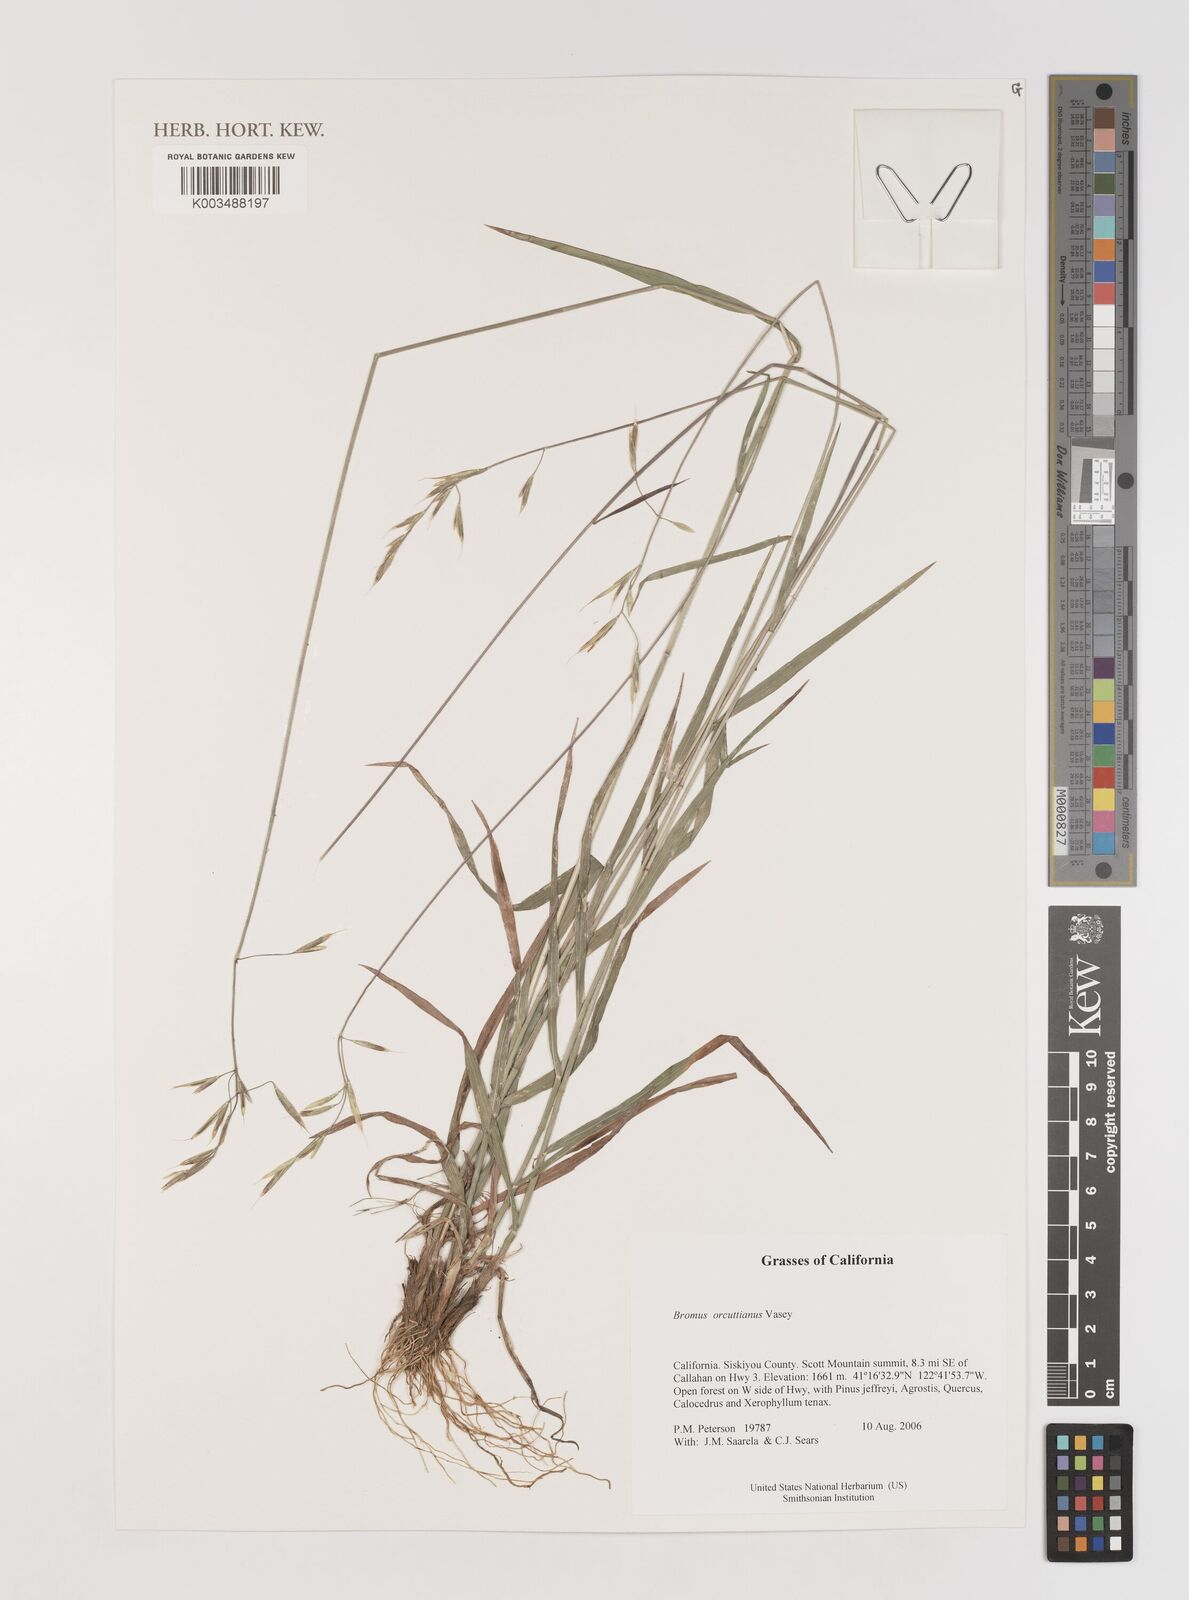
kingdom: Plantae
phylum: Tracheophyta
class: Liliopsida
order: Poales
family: Poaceae
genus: Bromus
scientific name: Bromus orcuttianus
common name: Orcutt's brome
